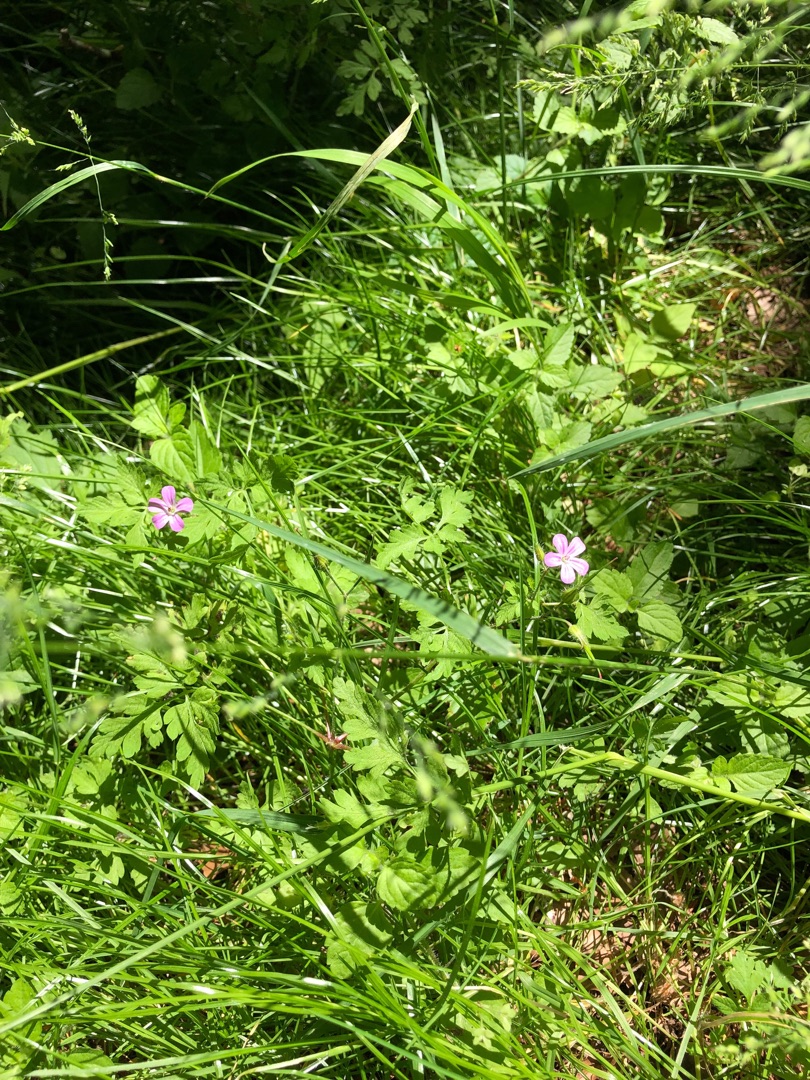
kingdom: Plantae
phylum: Tracheophyta
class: Magnoliopsida
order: Geraniales
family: Geraniaceae
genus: Geranium
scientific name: Geranium robertianum
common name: Stinkende storkenæb
